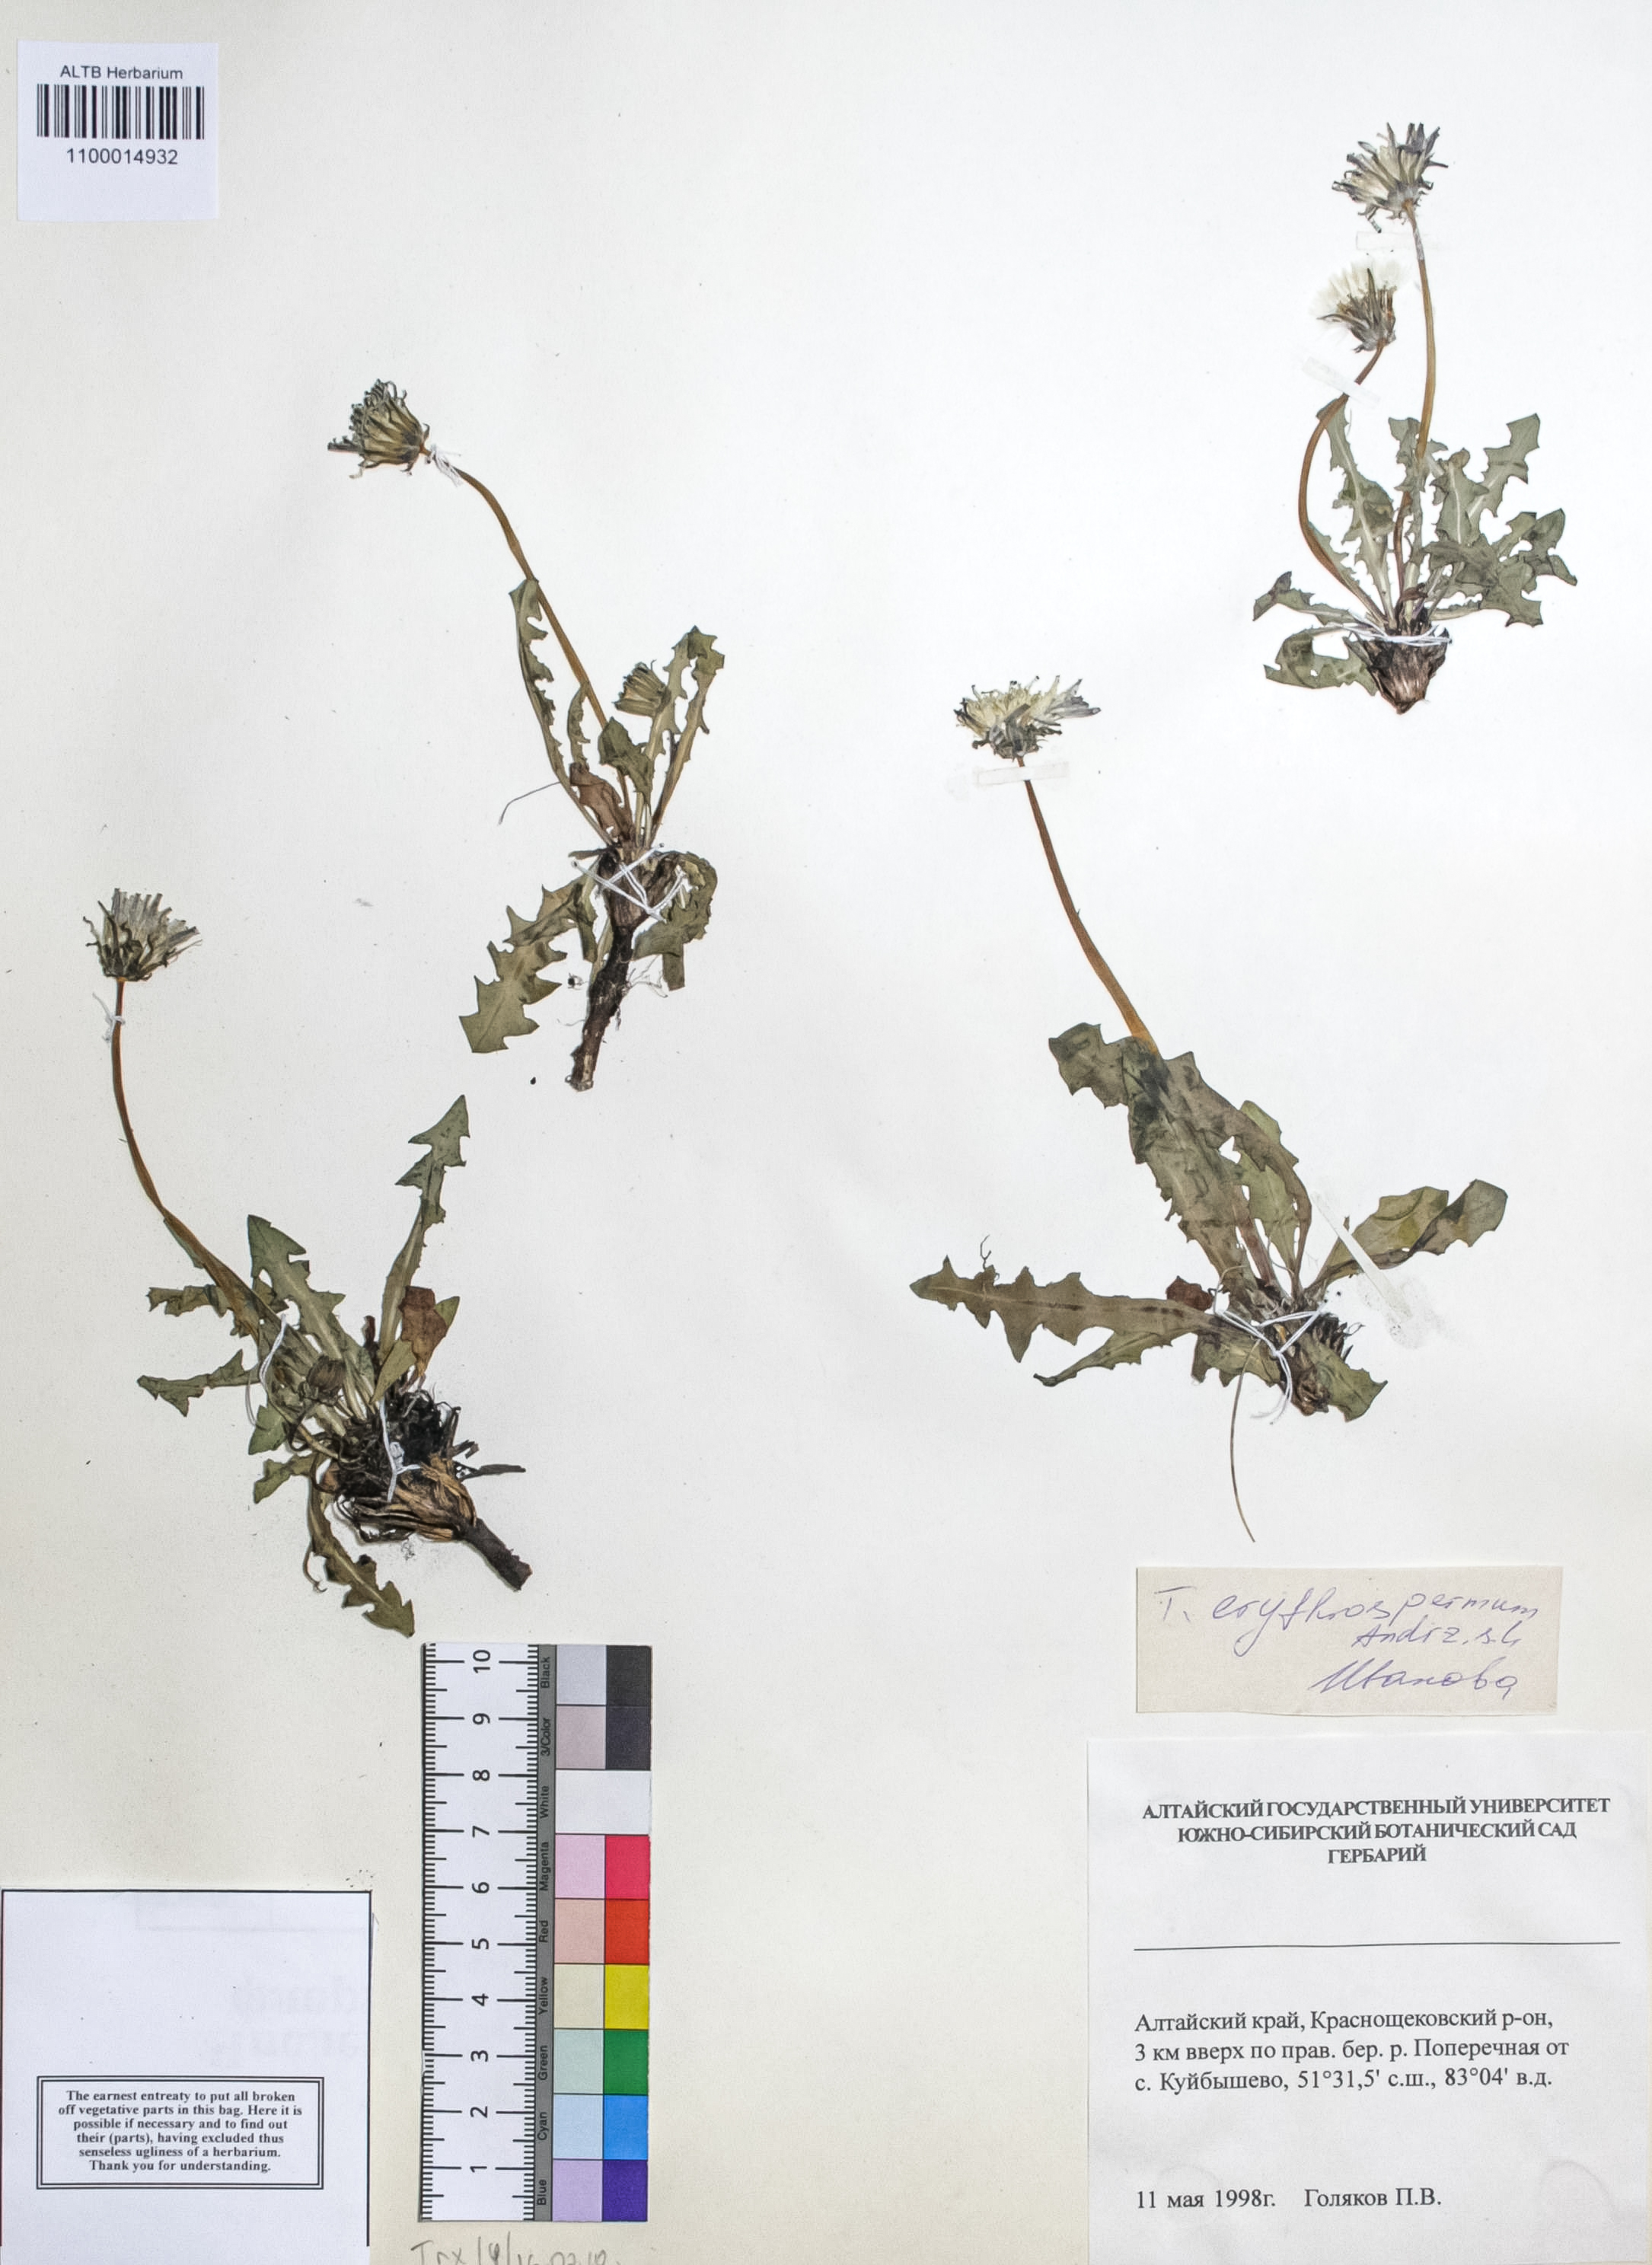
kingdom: Plantae
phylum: Tracheophyta
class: Magnoliopsida
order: Asterales
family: Asteraceae
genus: Taraxacum
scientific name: Taraxacum erythrospermum
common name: Rock dandelion
